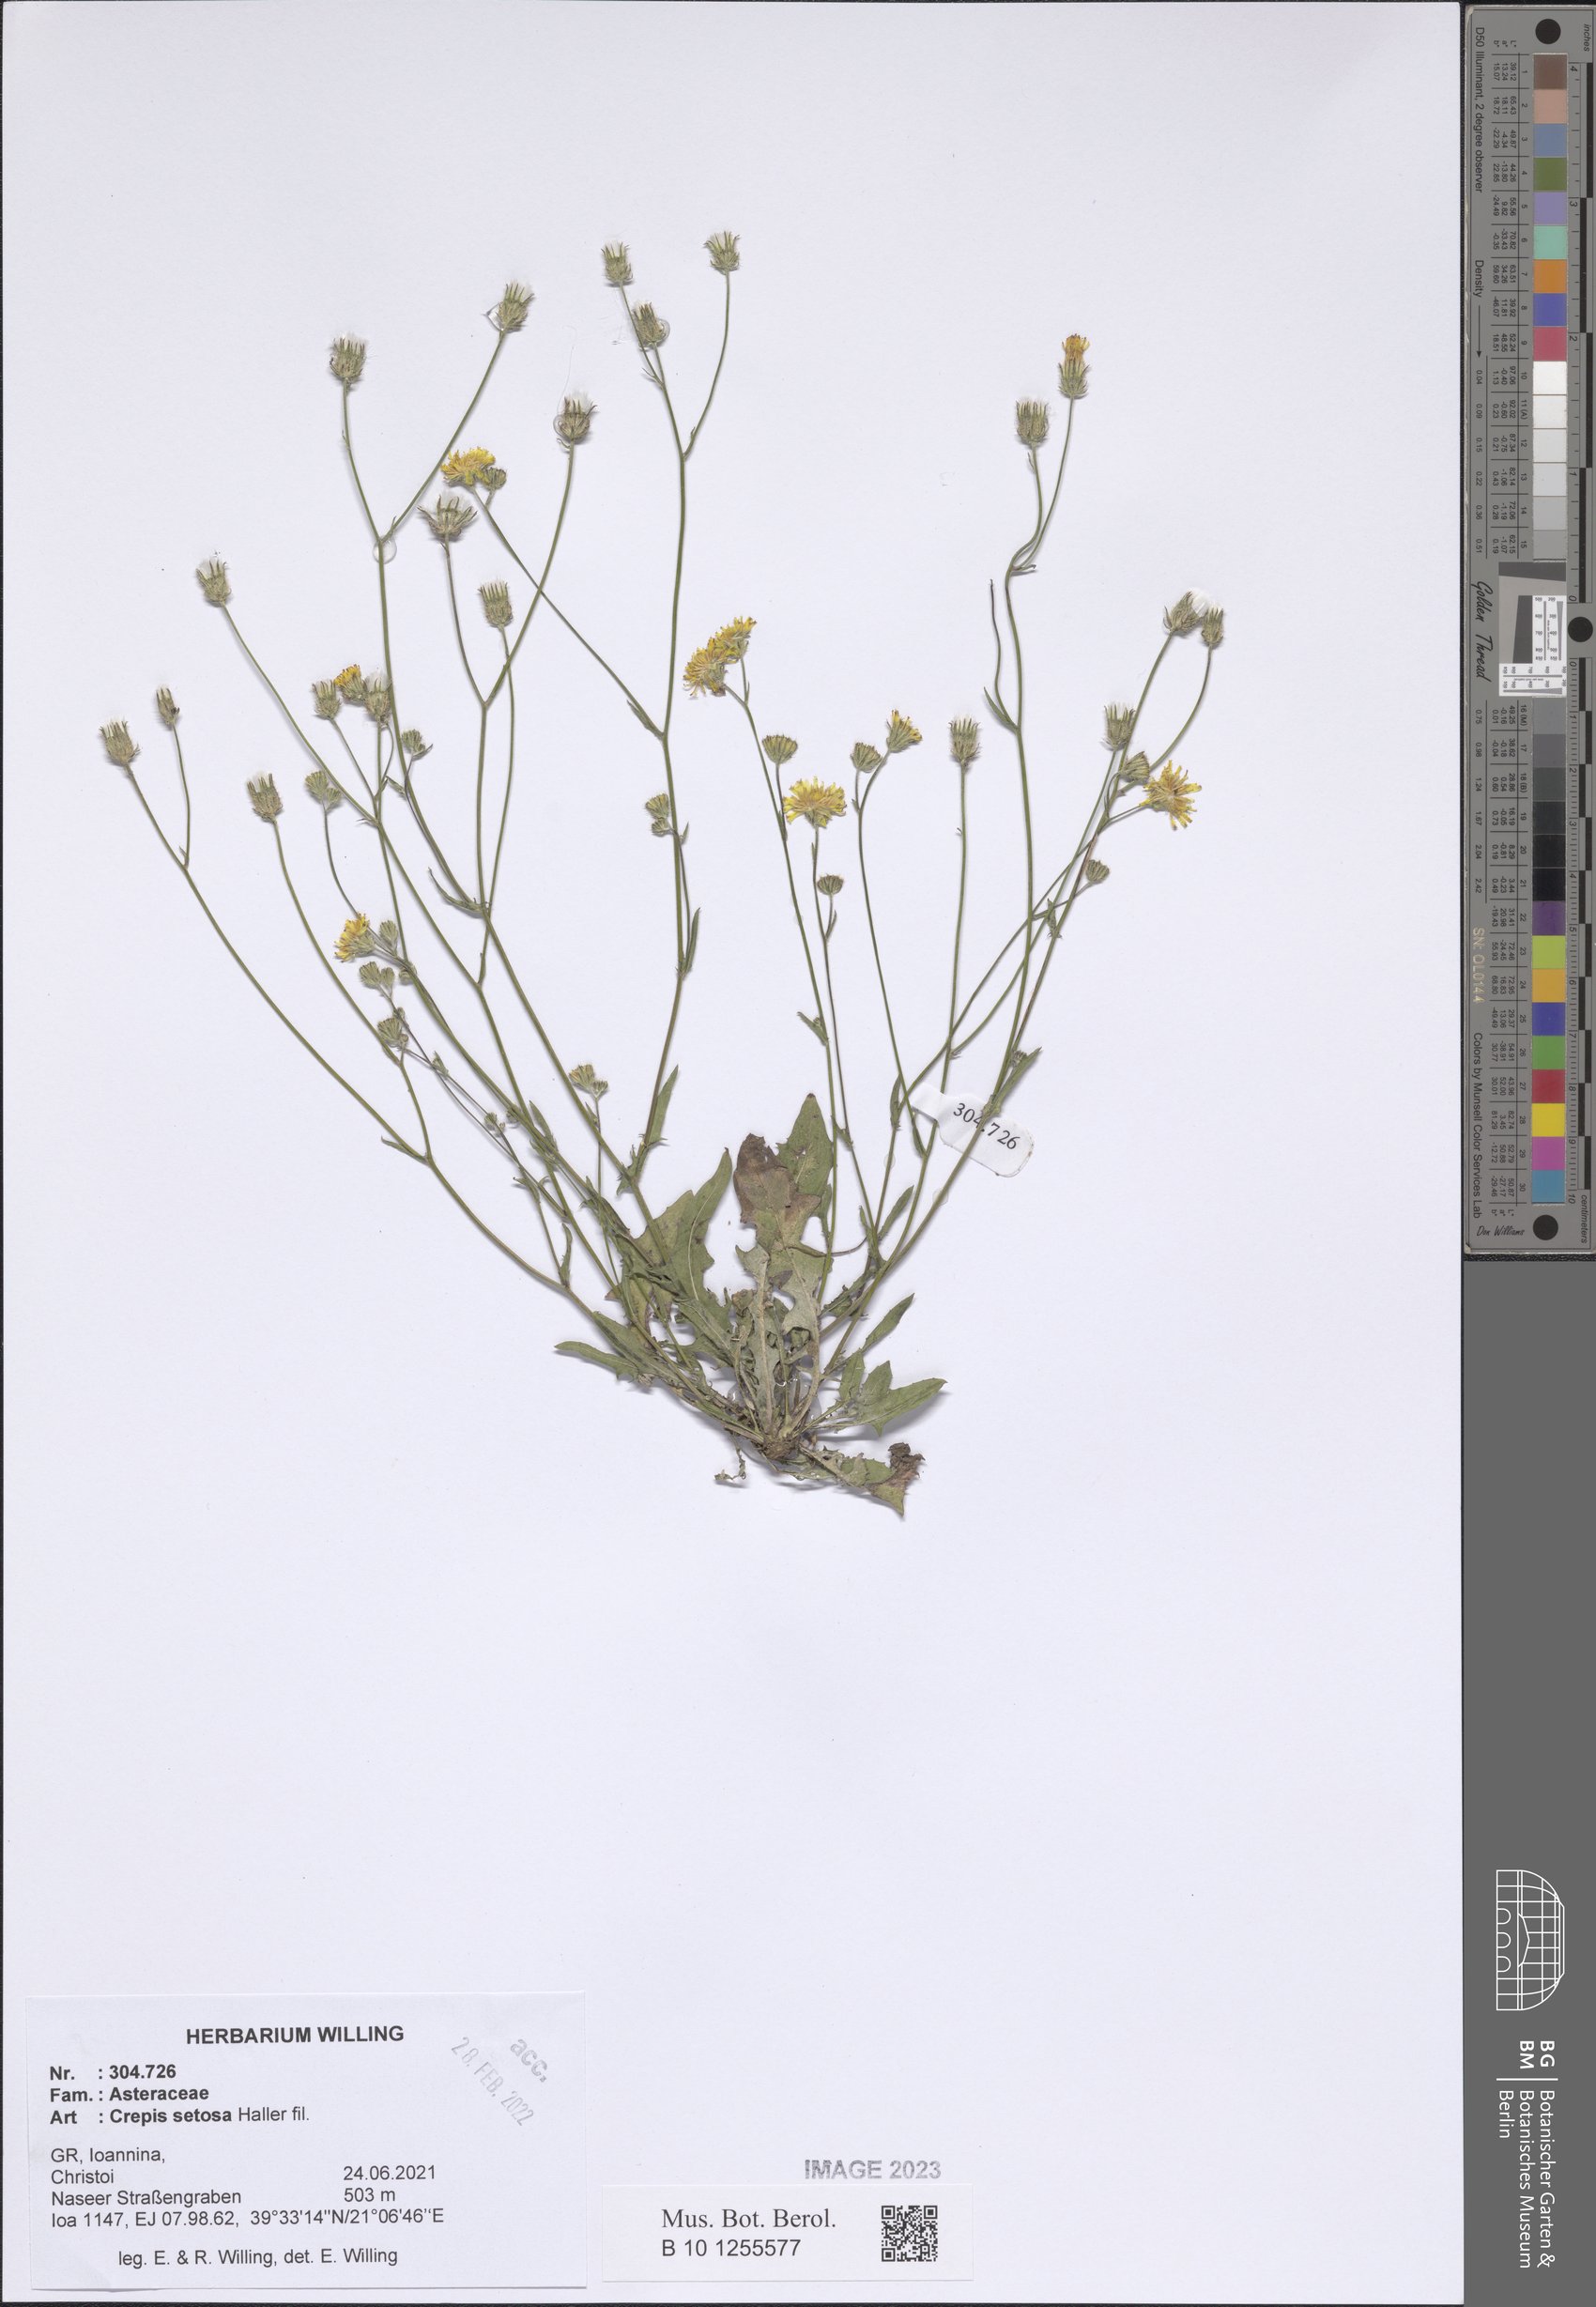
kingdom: Plantae
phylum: Tracheophyta
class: Magnoliopsida
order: Asterales
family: Asteraceae
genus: Crepis
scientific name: Crepis setosa
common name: Bristly hawk's-beard
